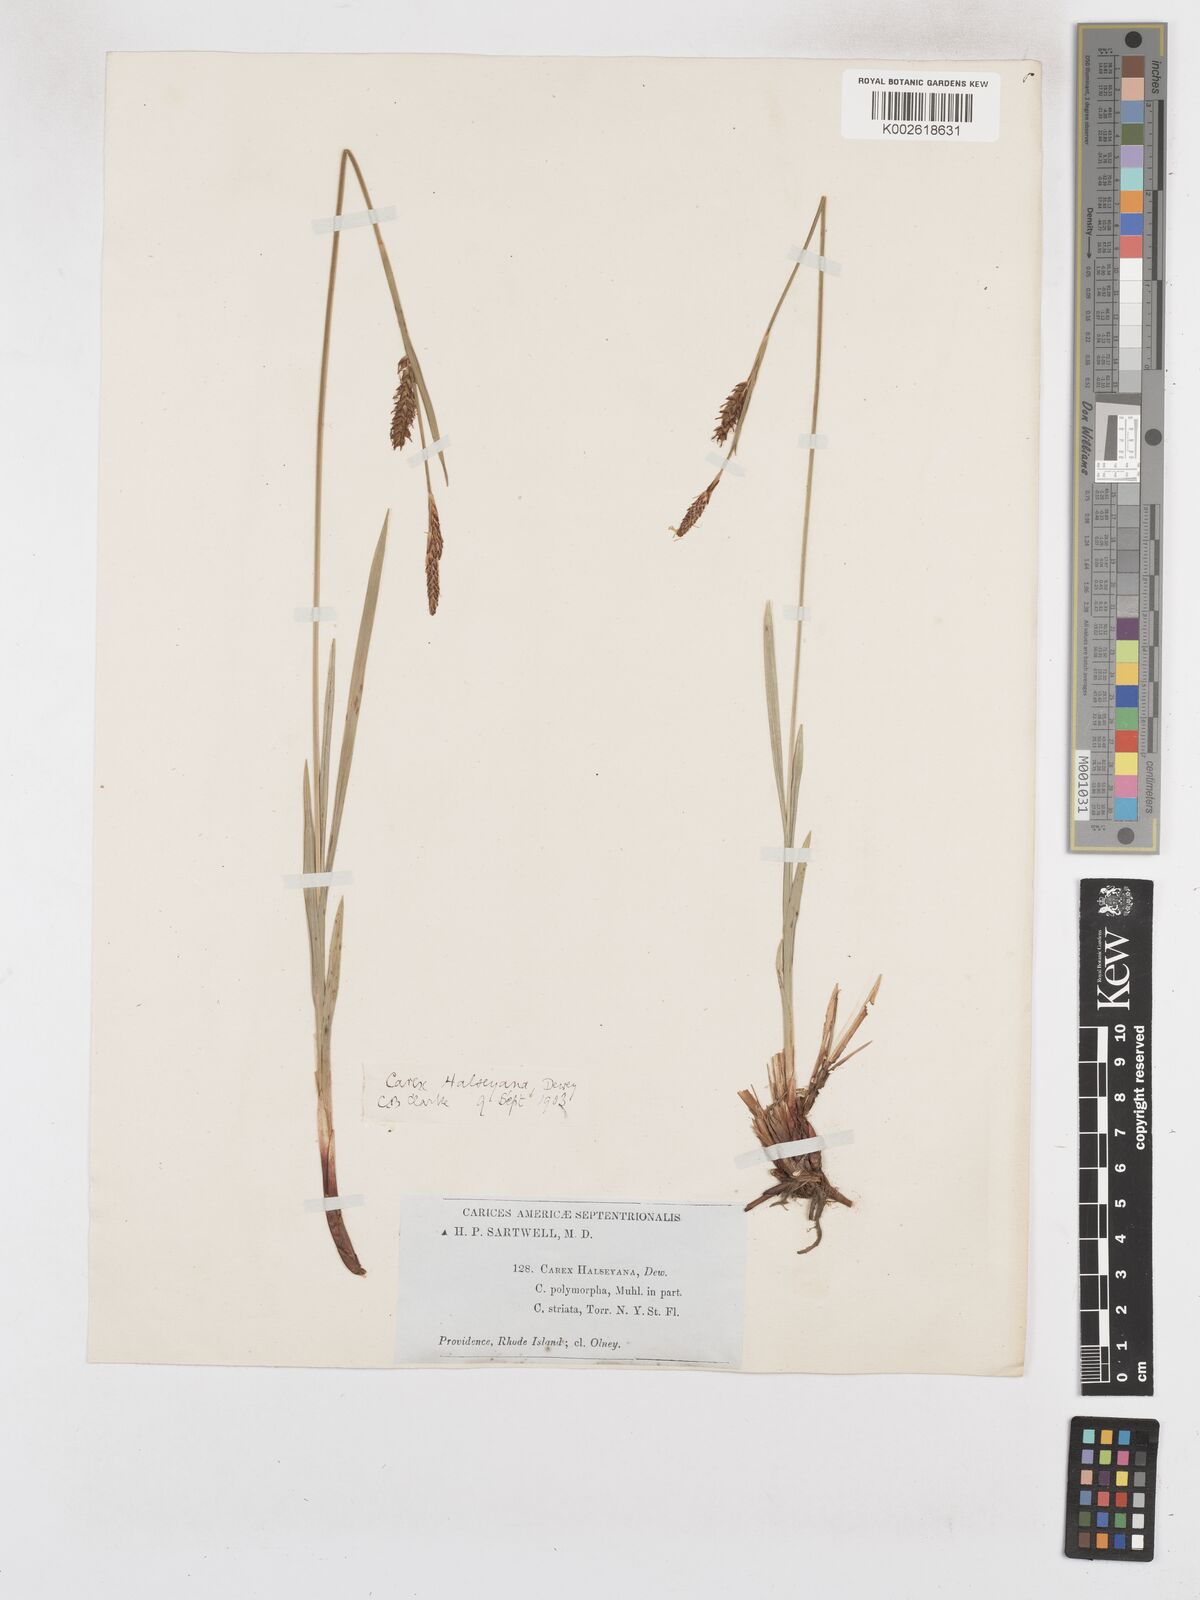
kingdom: Plantae
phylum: Tracheophyta
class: Liliopsida
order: Poales
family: Cyperaceae
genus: Carex
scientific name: Carex polymorpha
